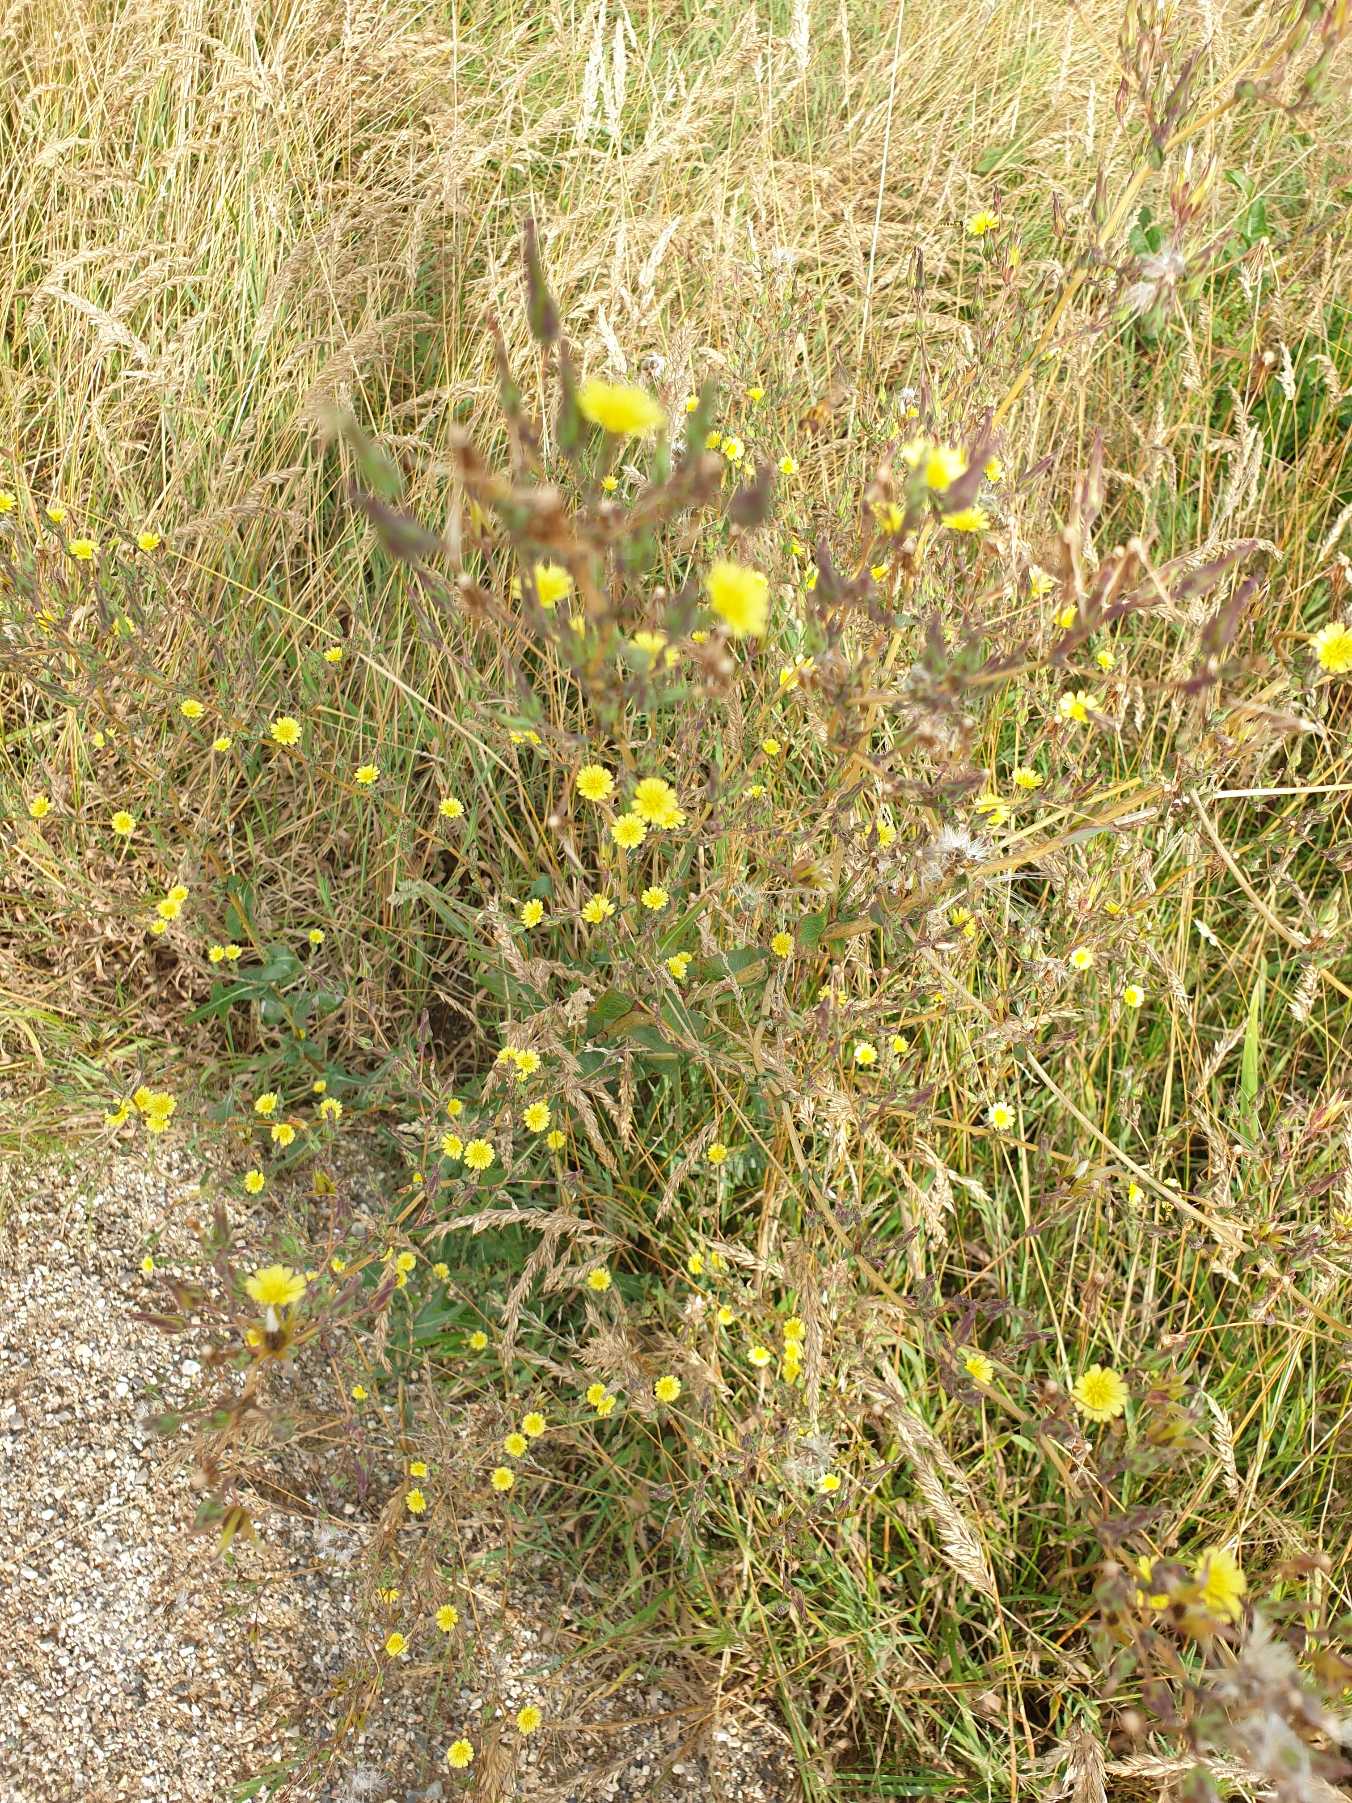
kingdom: Plantae
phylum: Tracheophyta
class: Magnoliopsida
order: Asterales
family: Asteraceae
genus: Lactuca
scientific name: Lactuca serriola
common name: Tornet salat
